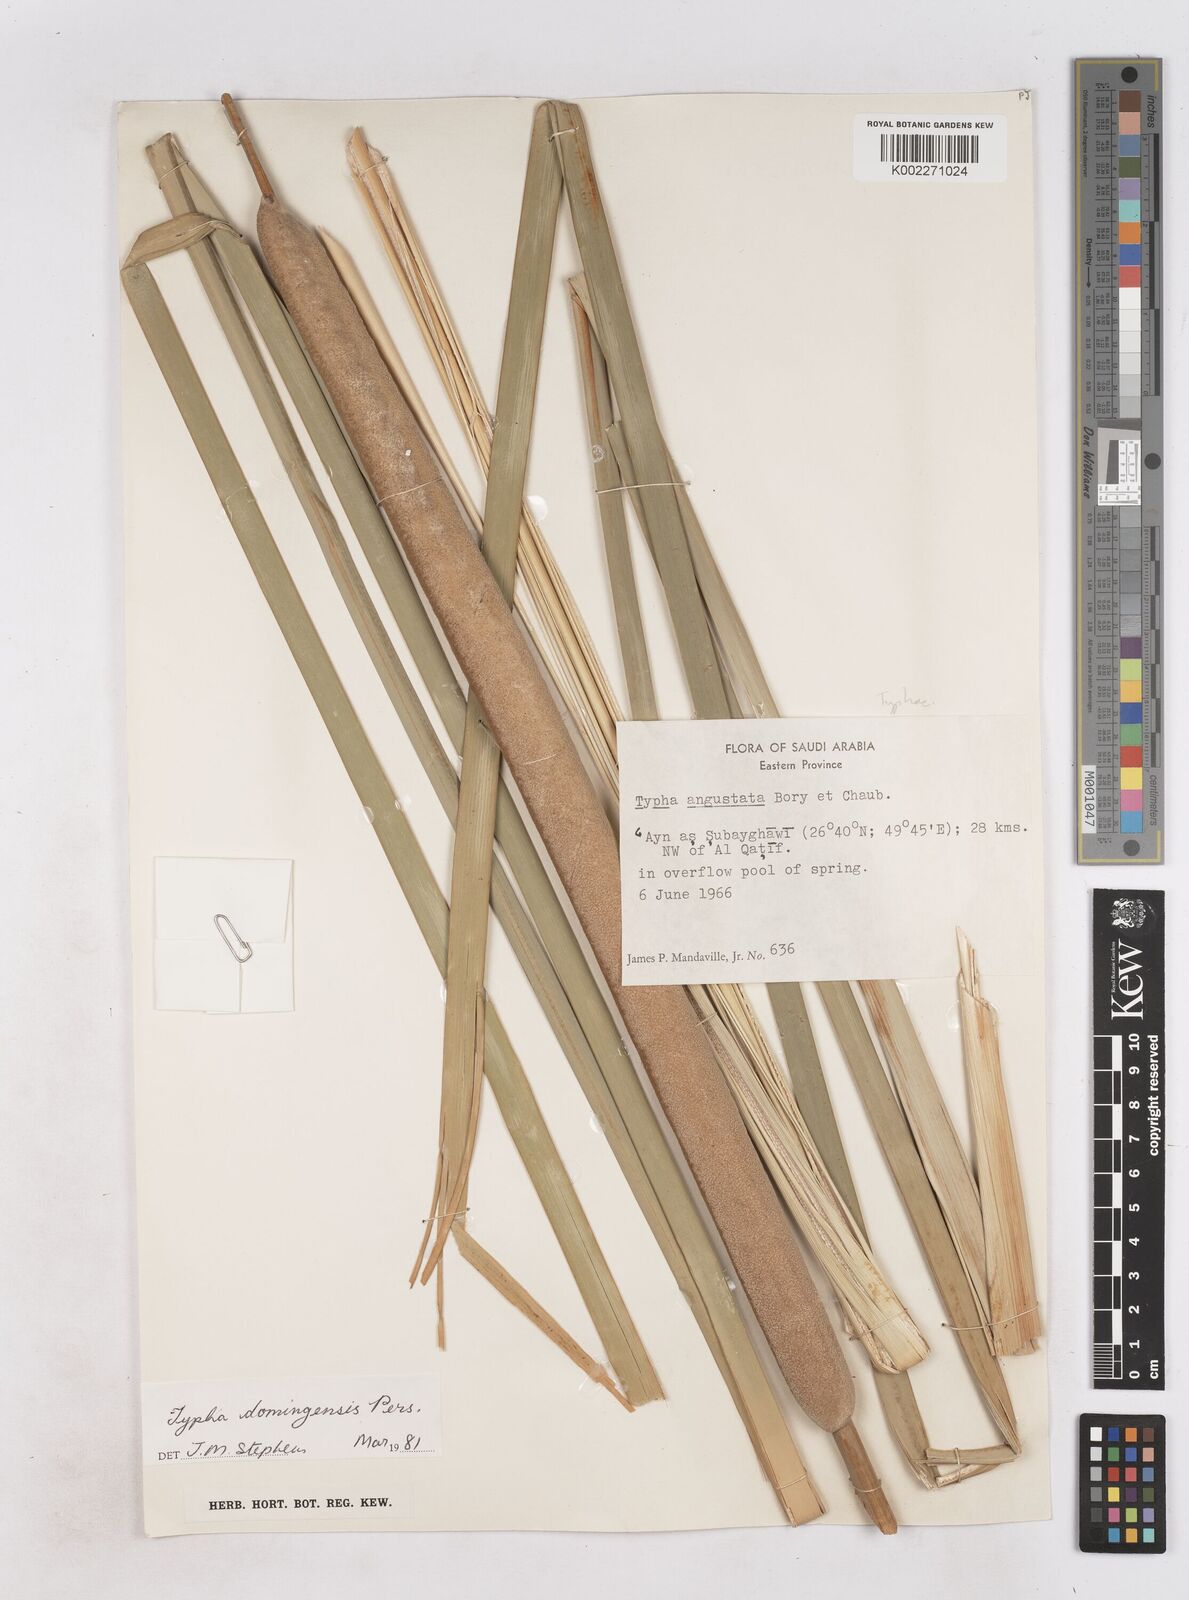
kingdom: Plantae
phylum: Tracheophyta
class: Liliopsida
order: Poales
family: Typhaceae
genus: Typha
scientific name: Typha domingensis
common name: Southern cattail
